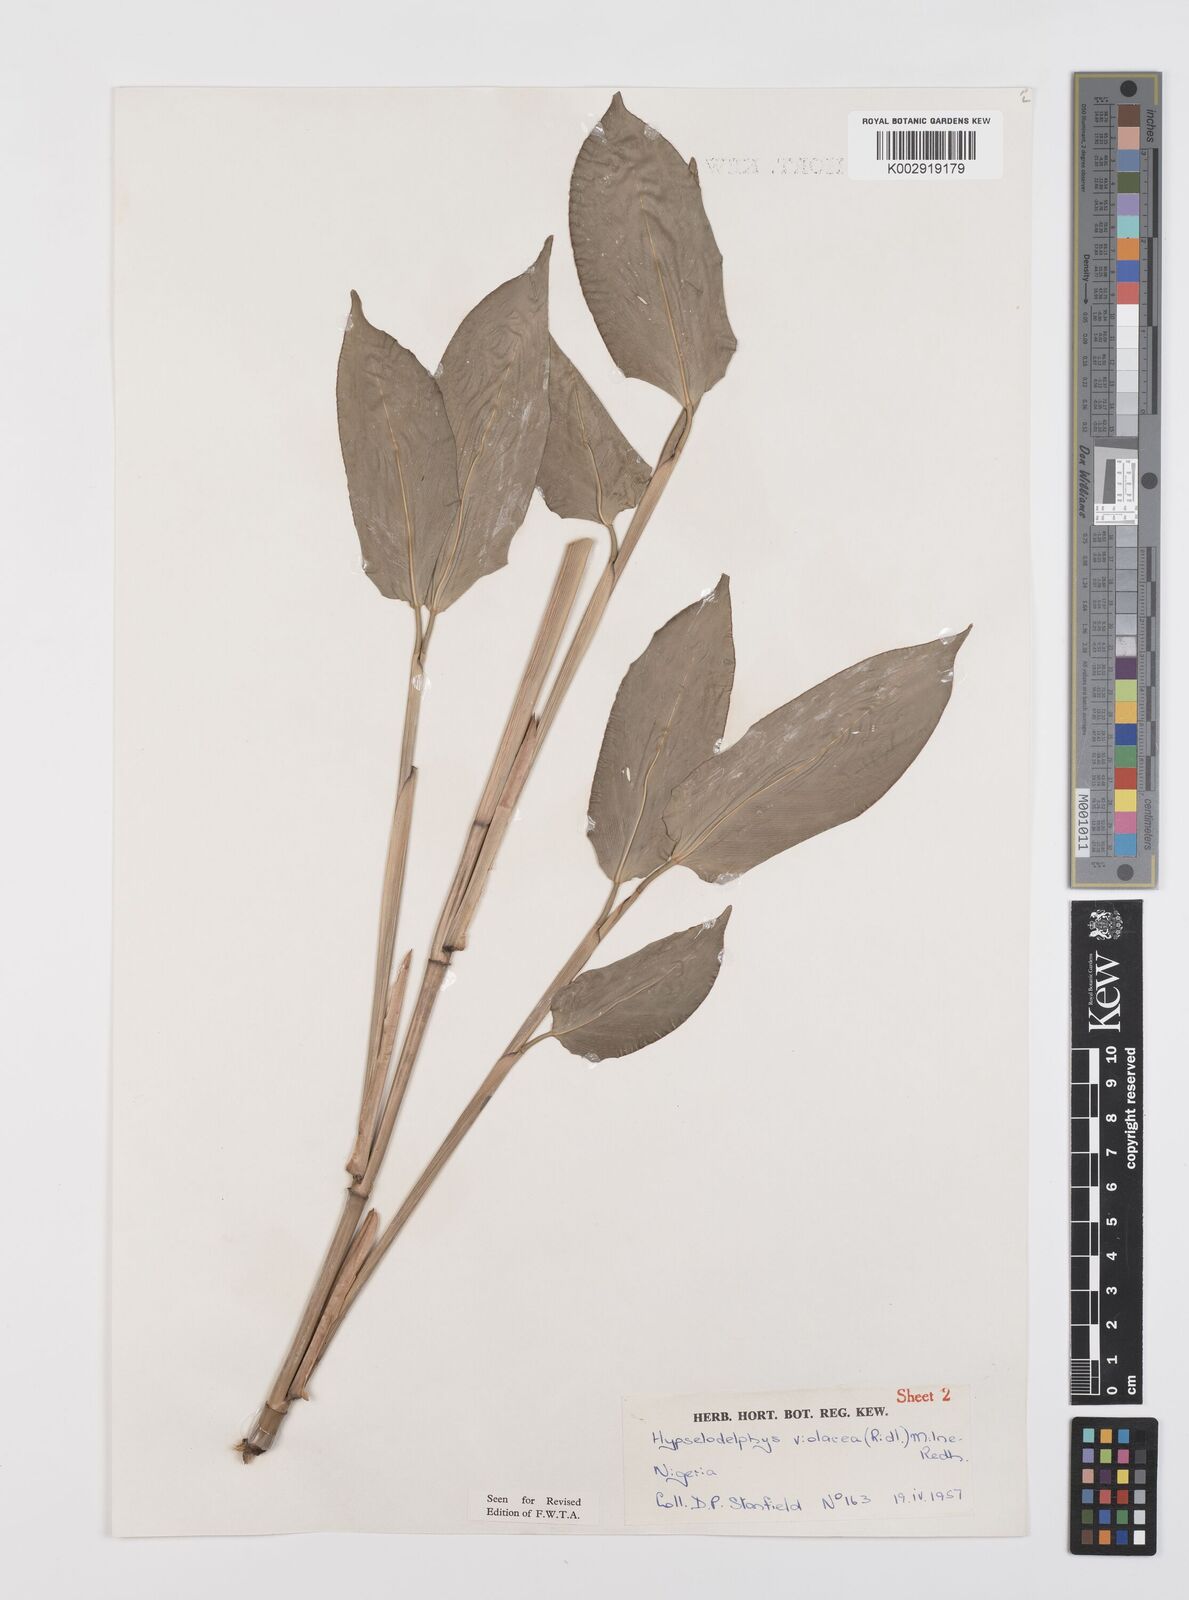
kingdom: Plantae
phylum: Tracheophyta
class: Liliopsida
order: Zingiberales
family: Marantaceae
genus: Hypselodelphys
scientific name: Hypselodelphys violacea
